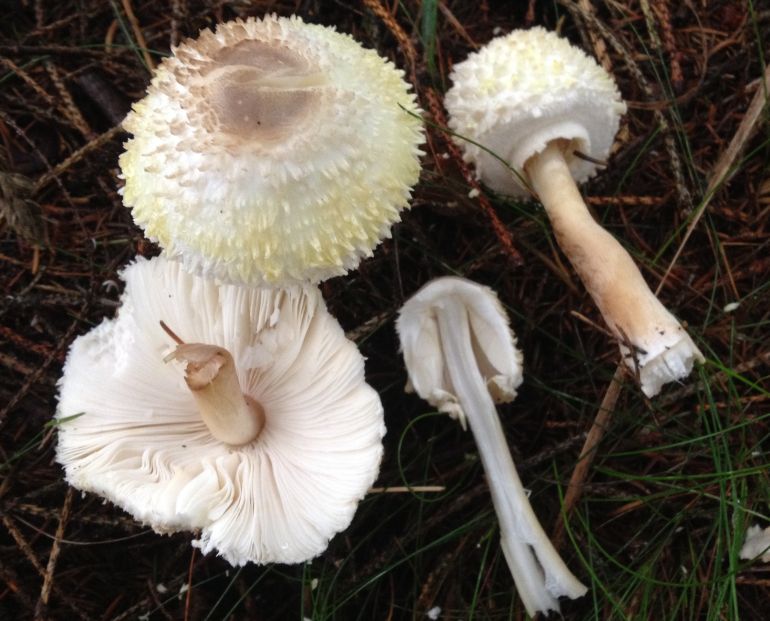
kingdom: Fungi
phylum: Basidiomycota
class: Agaricomycetes
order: Agaricales
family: Agaricaceae
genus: Leucoagaricus
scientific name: Leucoagaricus nympharum
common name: gran-silkehat
